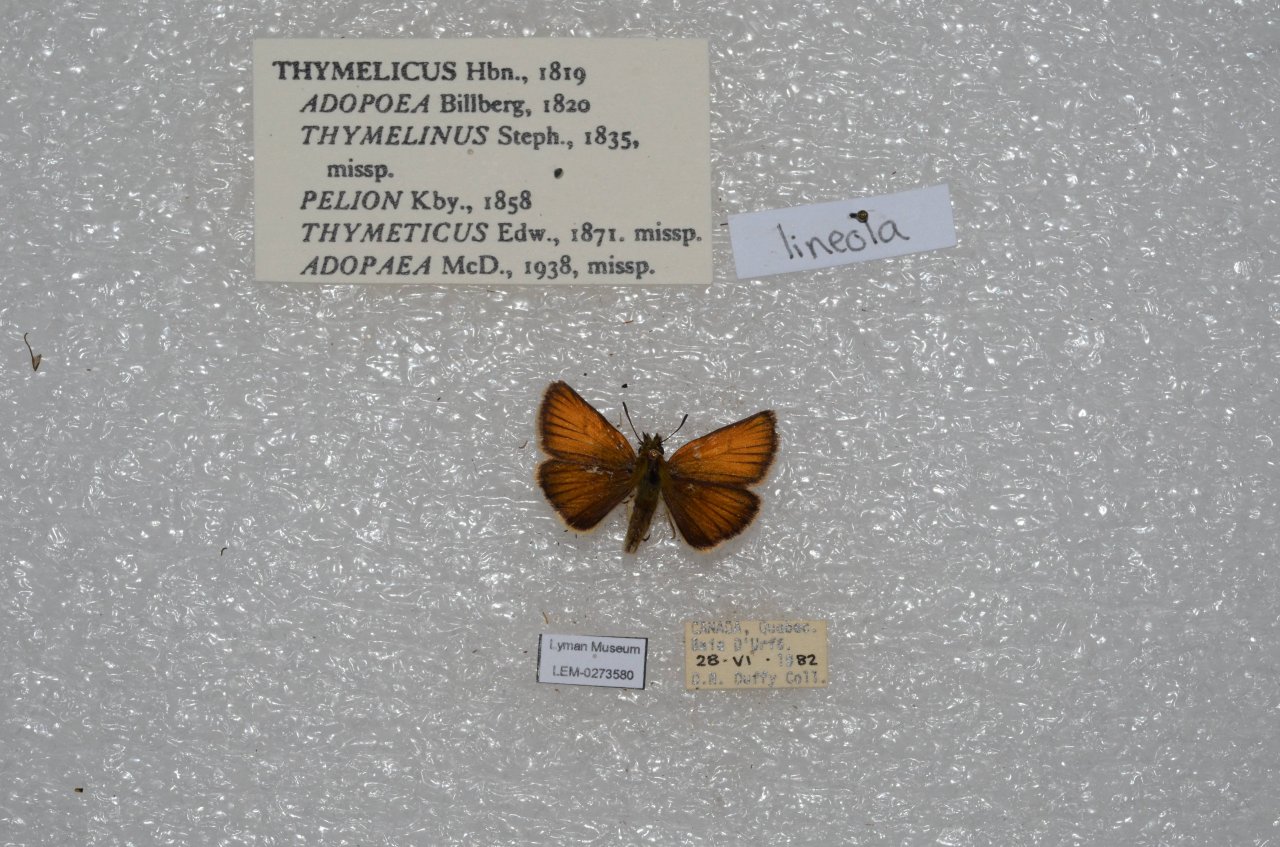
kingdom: Animalia
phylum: Arthropoda
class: Insecta
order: Lepidoptera
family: Hesperiidae
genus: Thymelicus
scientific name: Thymelicus lineola
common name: European Skipper
